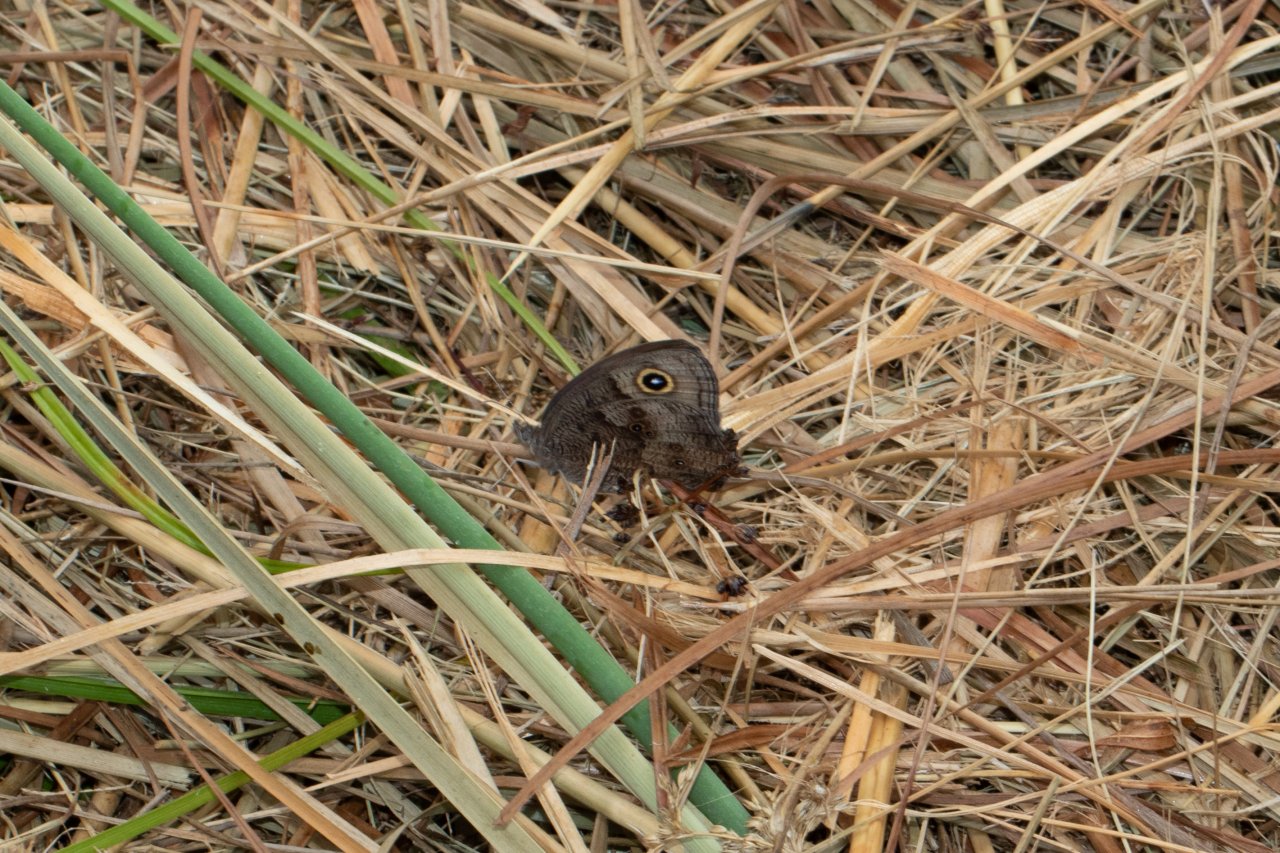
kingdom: Animalia
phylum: Arthropoda
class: Insecta
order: Lepidoptera
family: Nymphalidae
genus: Cercyonis
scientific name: Cercyonis pegala
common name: Common Wood-Nymph
